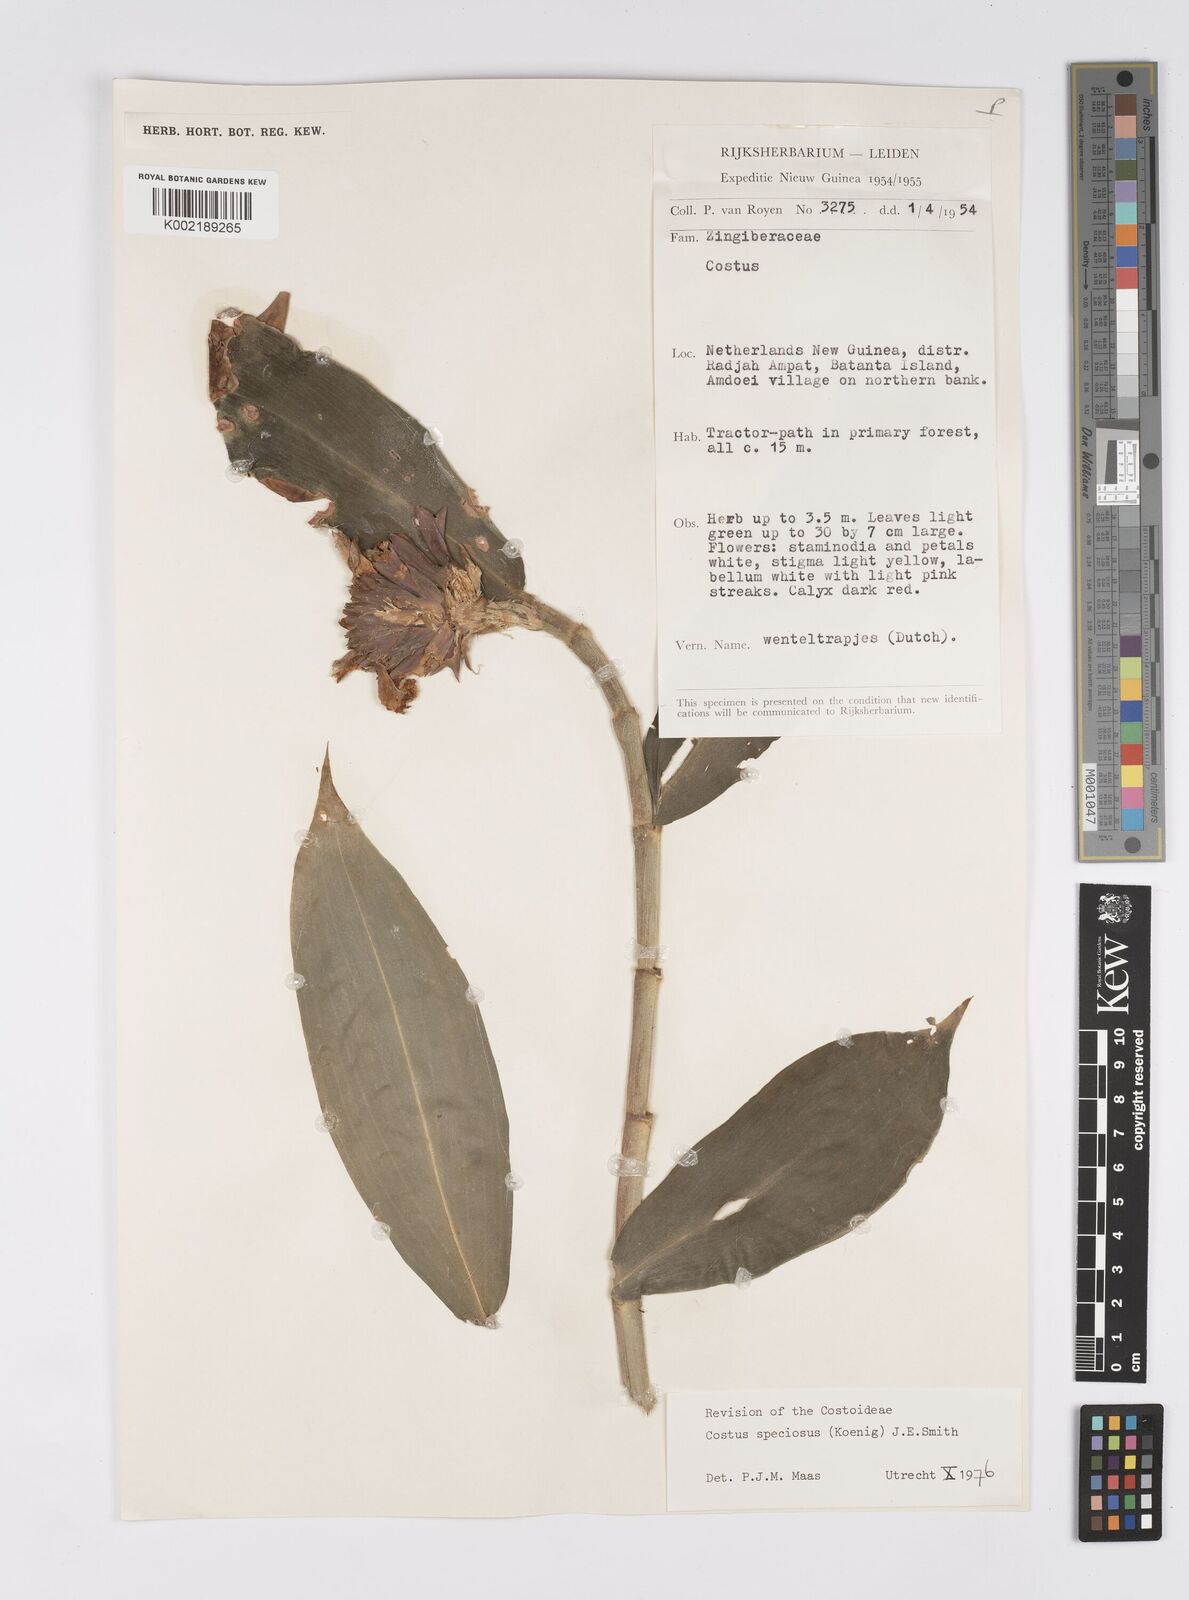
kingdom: Plantae
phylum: Tracheophyta
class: Liliopsida
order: Zingiberales
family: Costaceae
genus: Hellenia
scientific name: Hellenia speciosa
